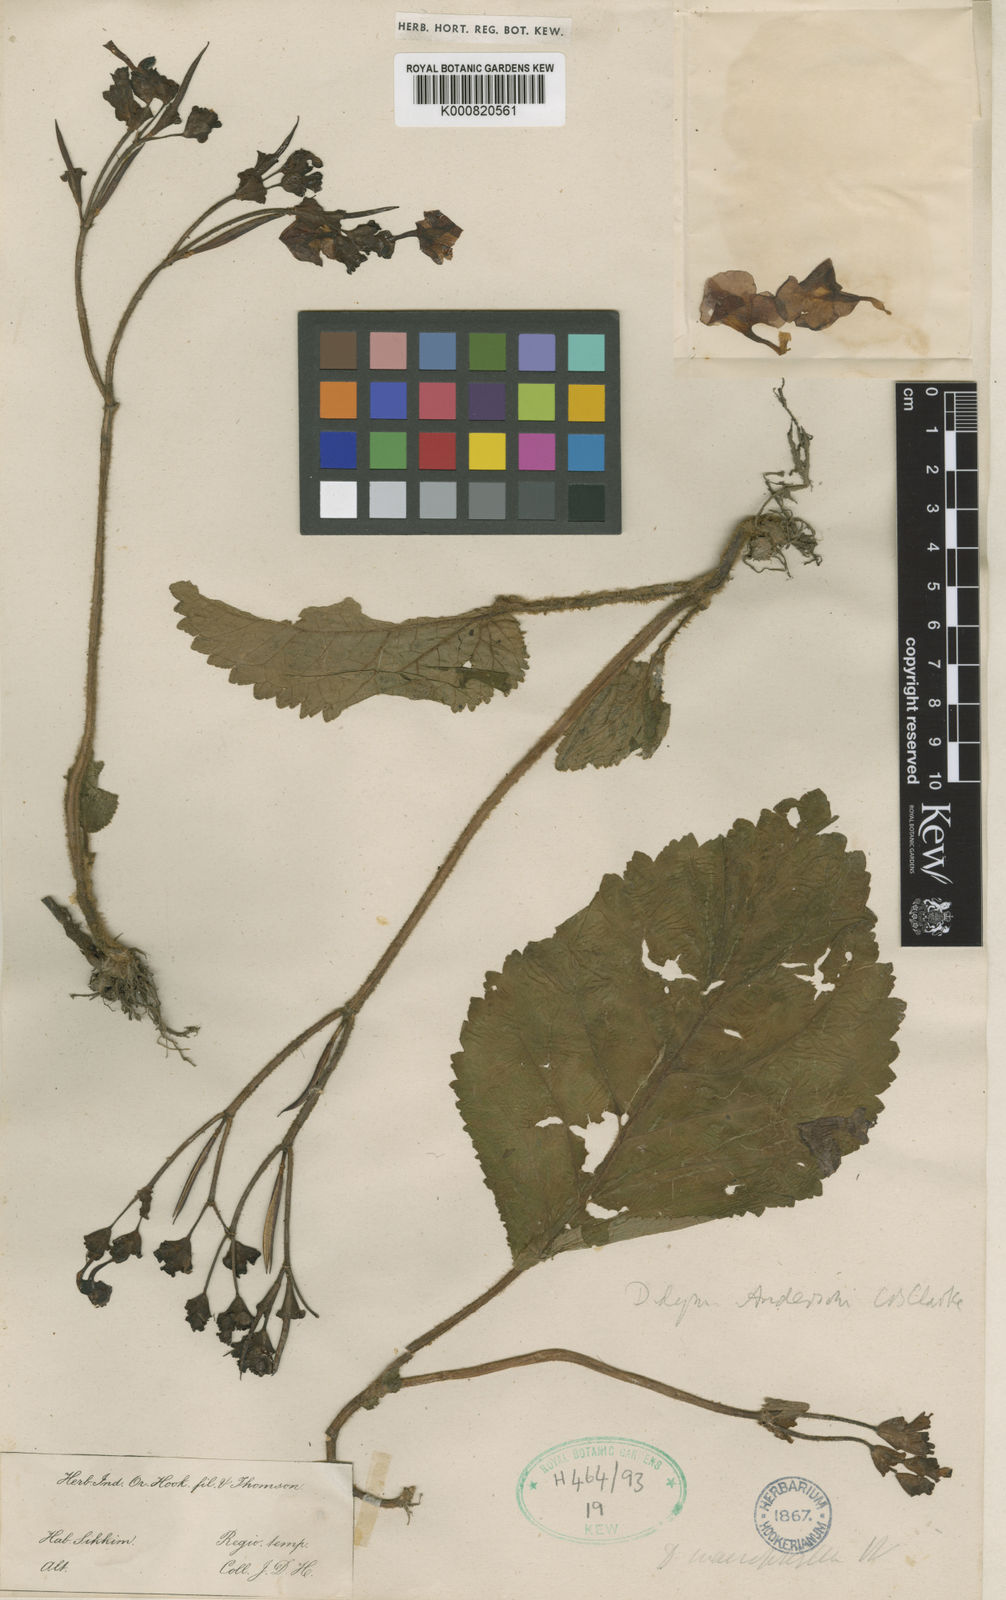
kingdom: Plantae
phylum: Tracheophyta
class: Magnoliopsida
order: Lamiales
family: Gesneriaceae
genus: Didymocarpus
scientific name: Didymocarpus andersonii
